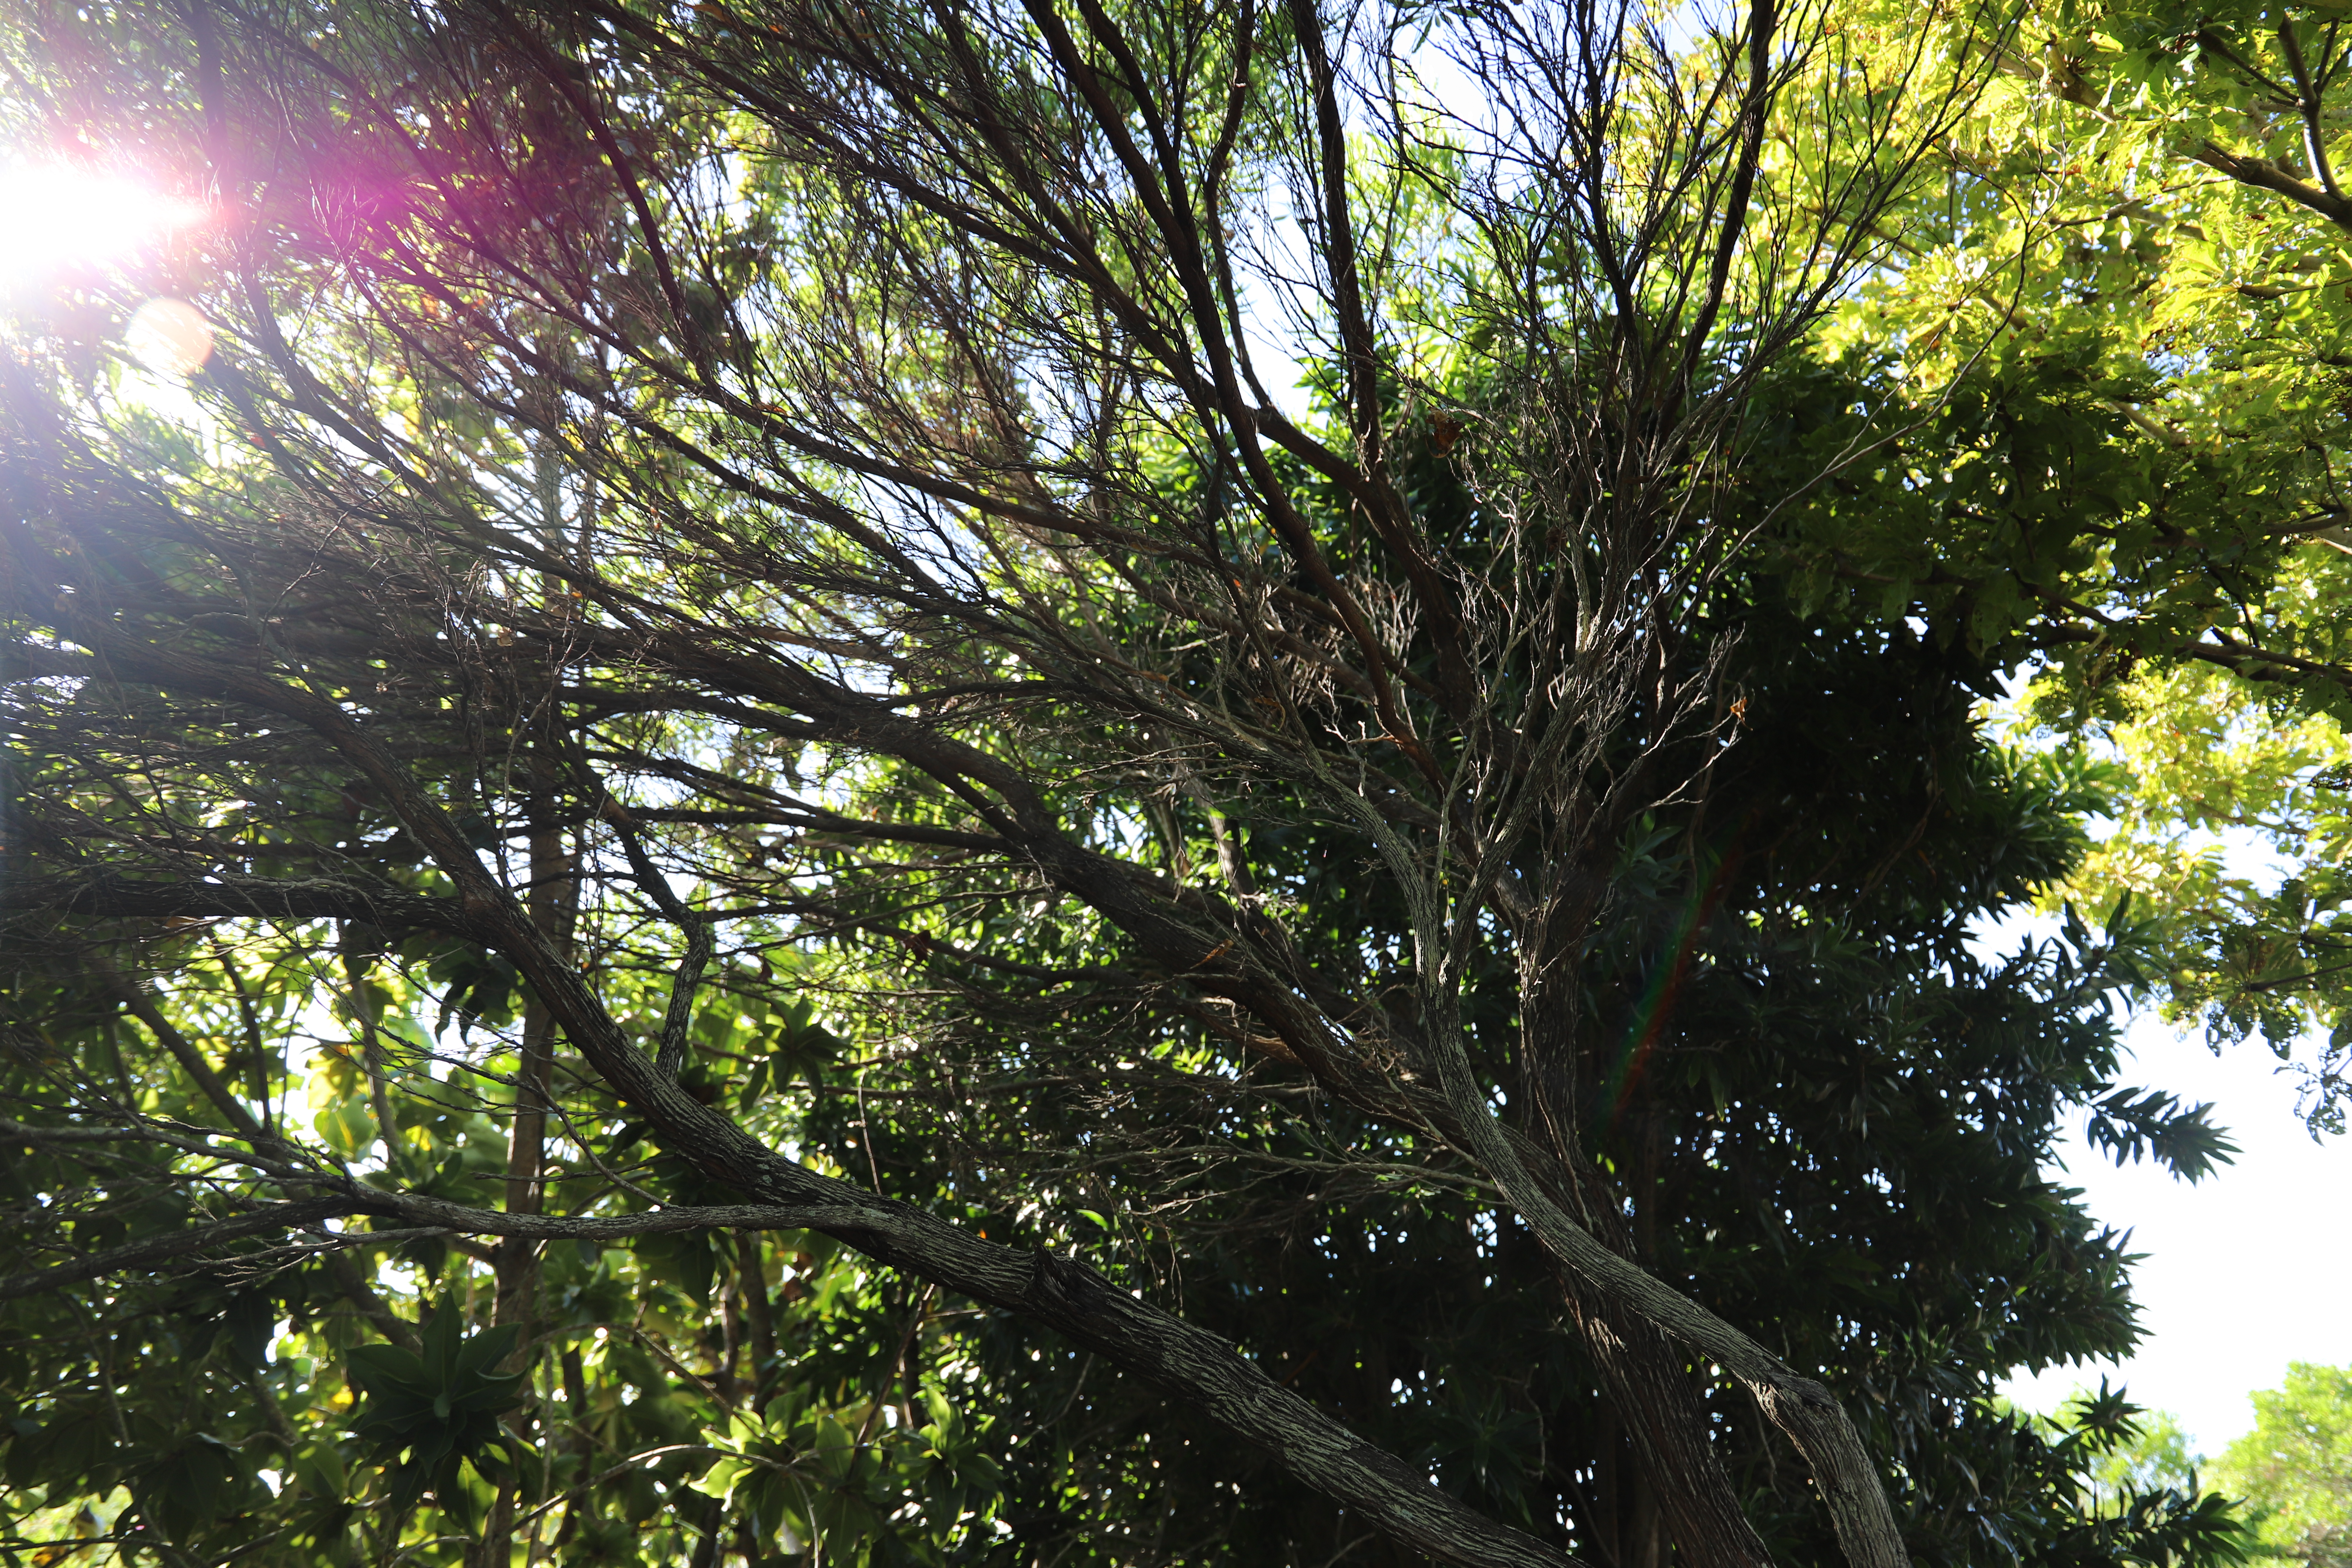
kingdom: Plantae
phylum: Tracheophyta
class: Magnoliopsida
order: Sapindales
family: Sapindaceae
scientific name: Sapindaceae
